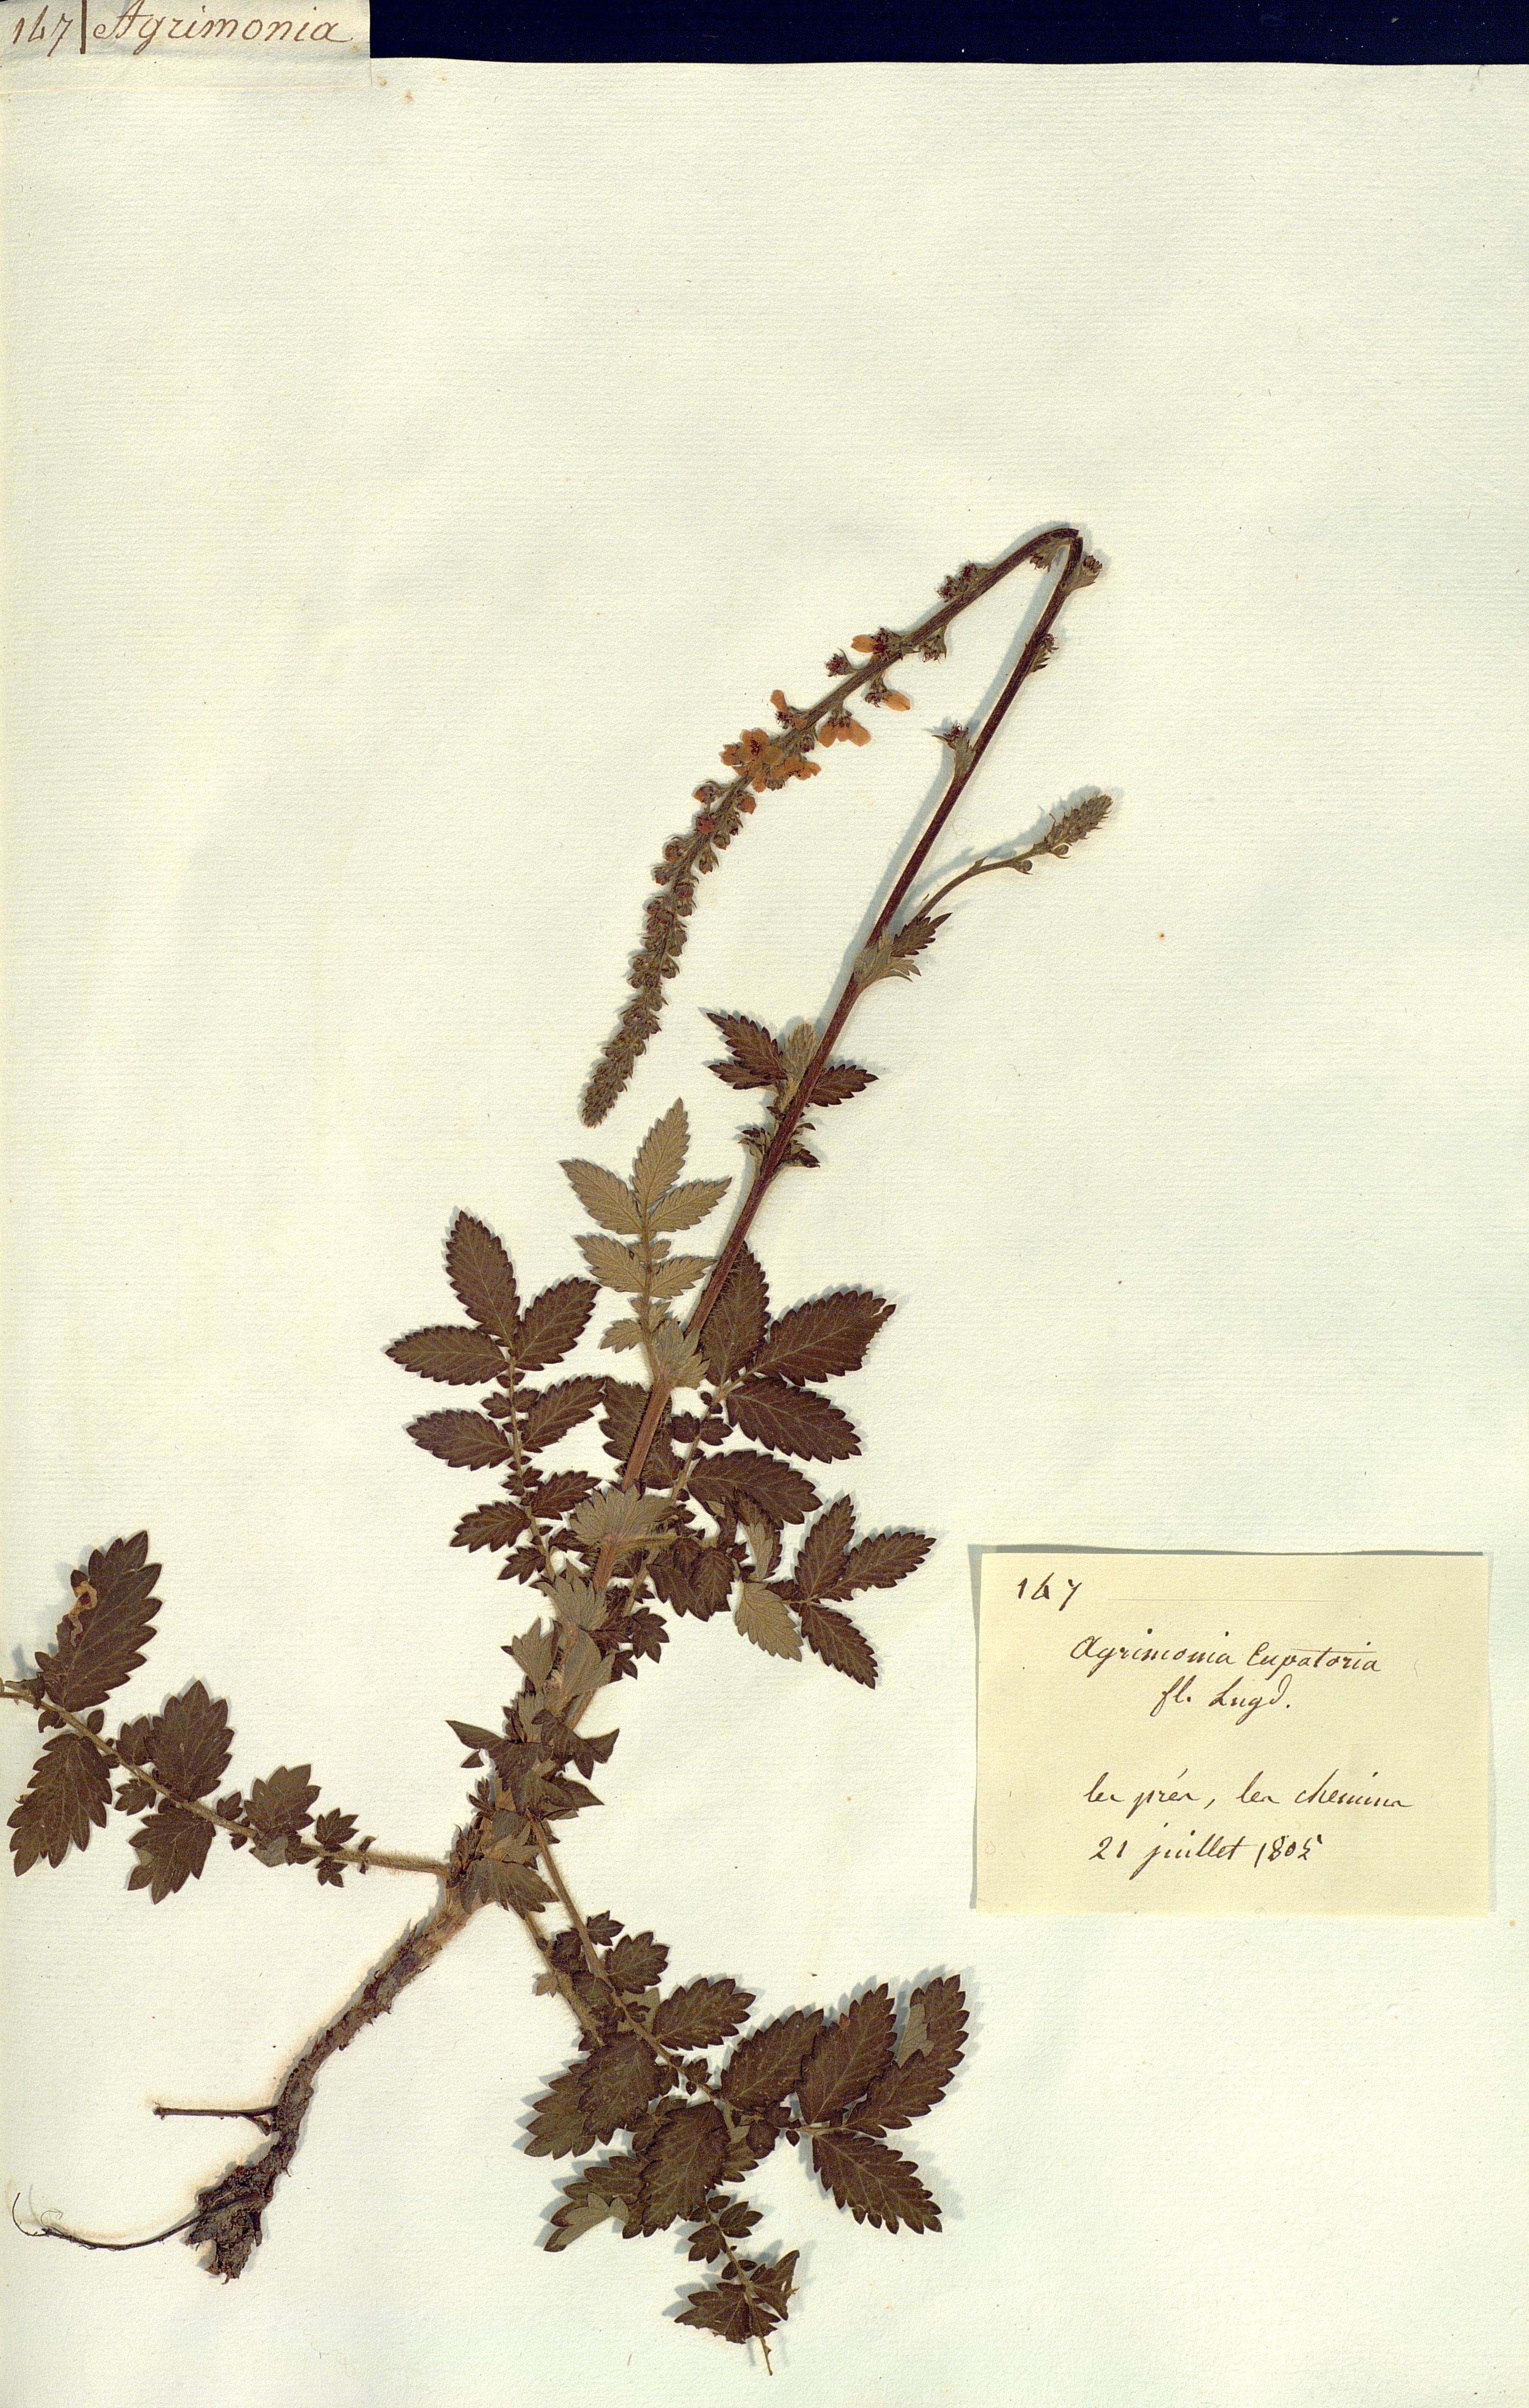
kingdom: Plantae
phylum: Tracheophyta
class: Magnoliopsida
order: Rosales
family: Rosaceae
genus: Agrimonia
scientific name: Agrimonia eupatoria
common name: Agrimony
